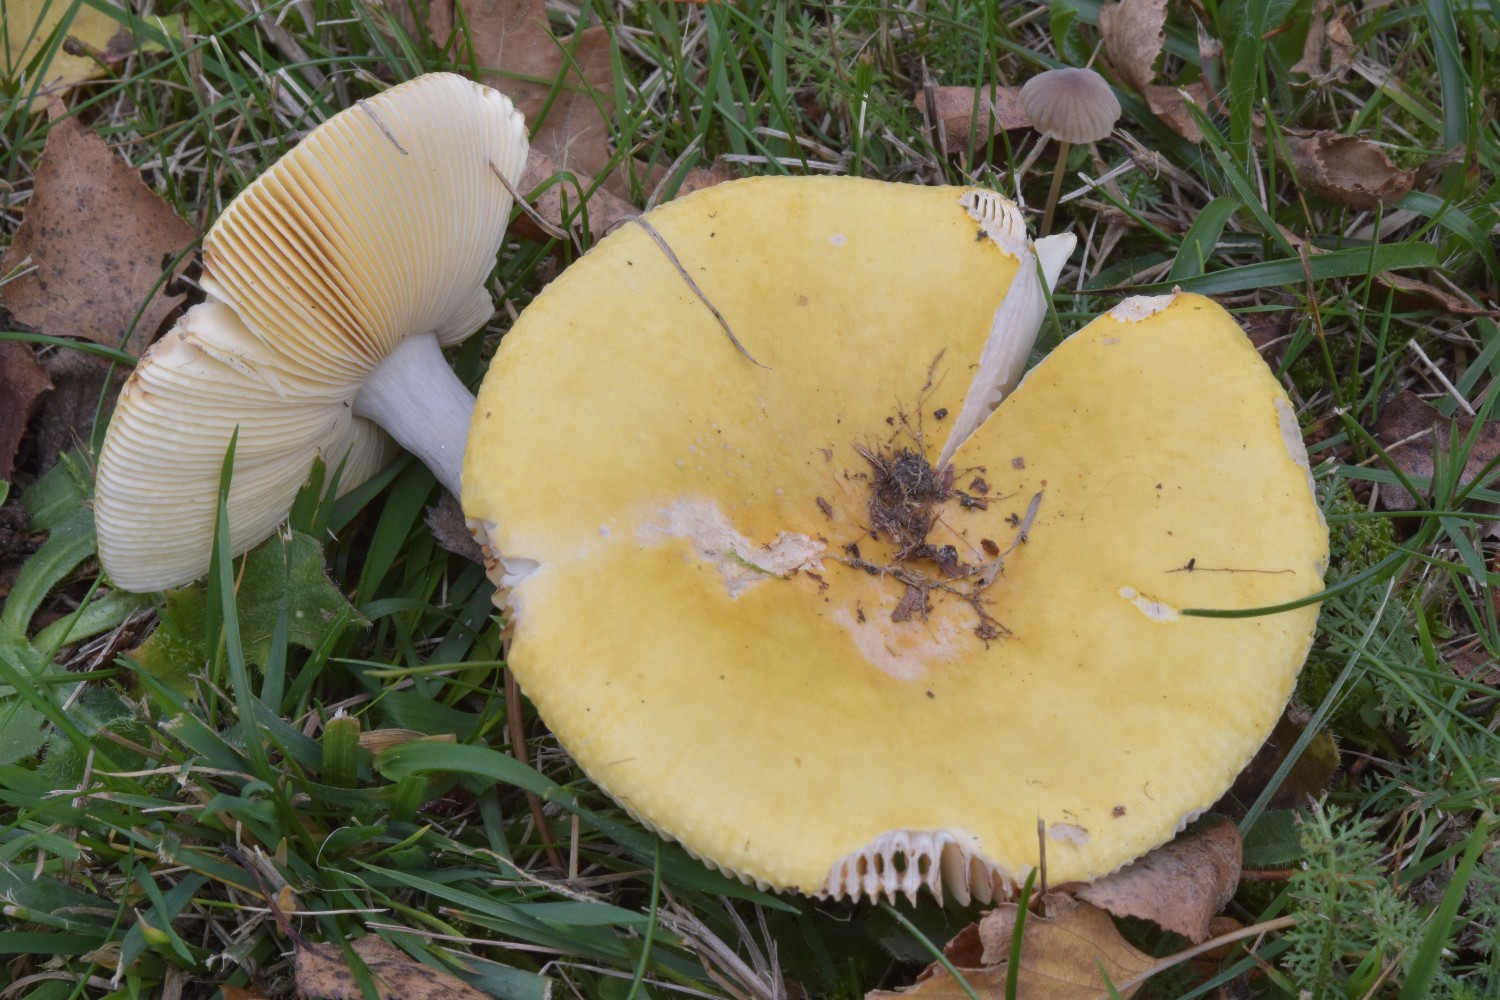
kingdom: Fungi
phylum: Basidiomycota
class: Agaricomycetes
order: Russulales
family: Russulaceae
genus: Russula
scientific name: Russula claroflava
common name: birke-skørhat
